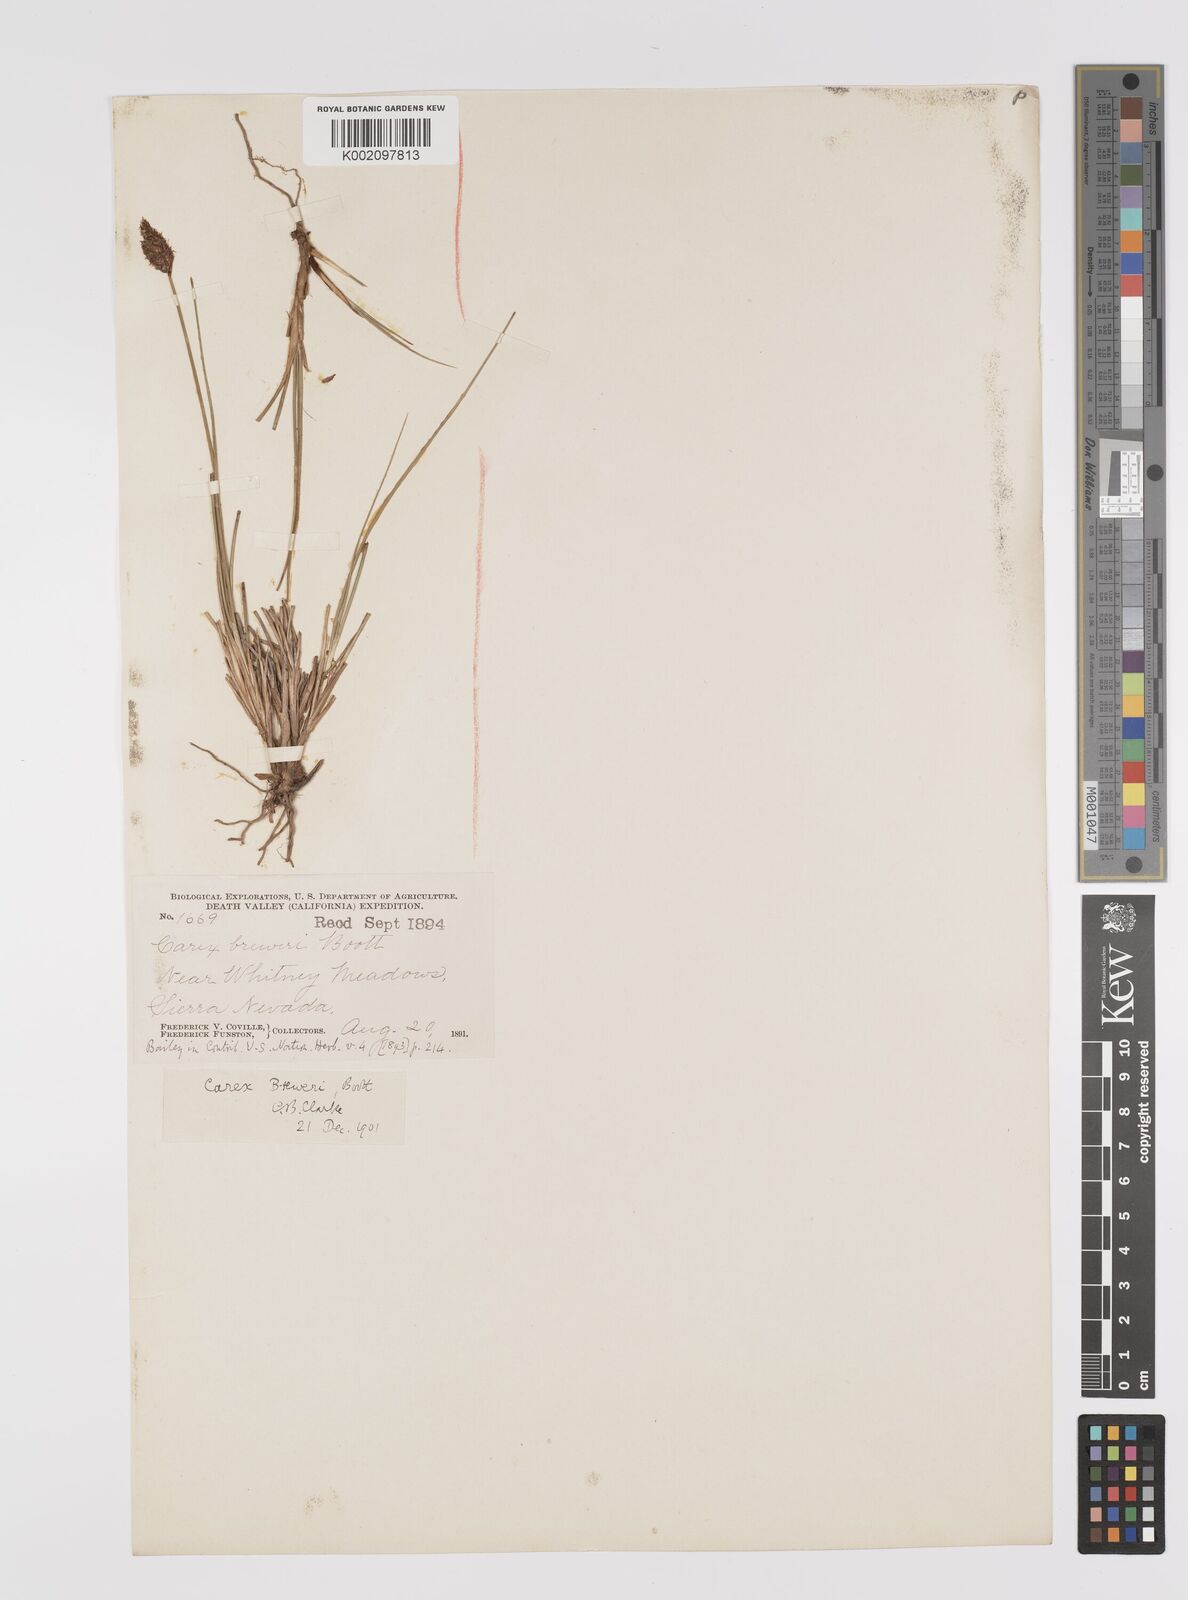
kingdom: Plantae
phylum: Tracheophyta
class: Liliopsida
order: Poales
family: Cyperaceae
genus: Carex
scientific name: Carex breweri
